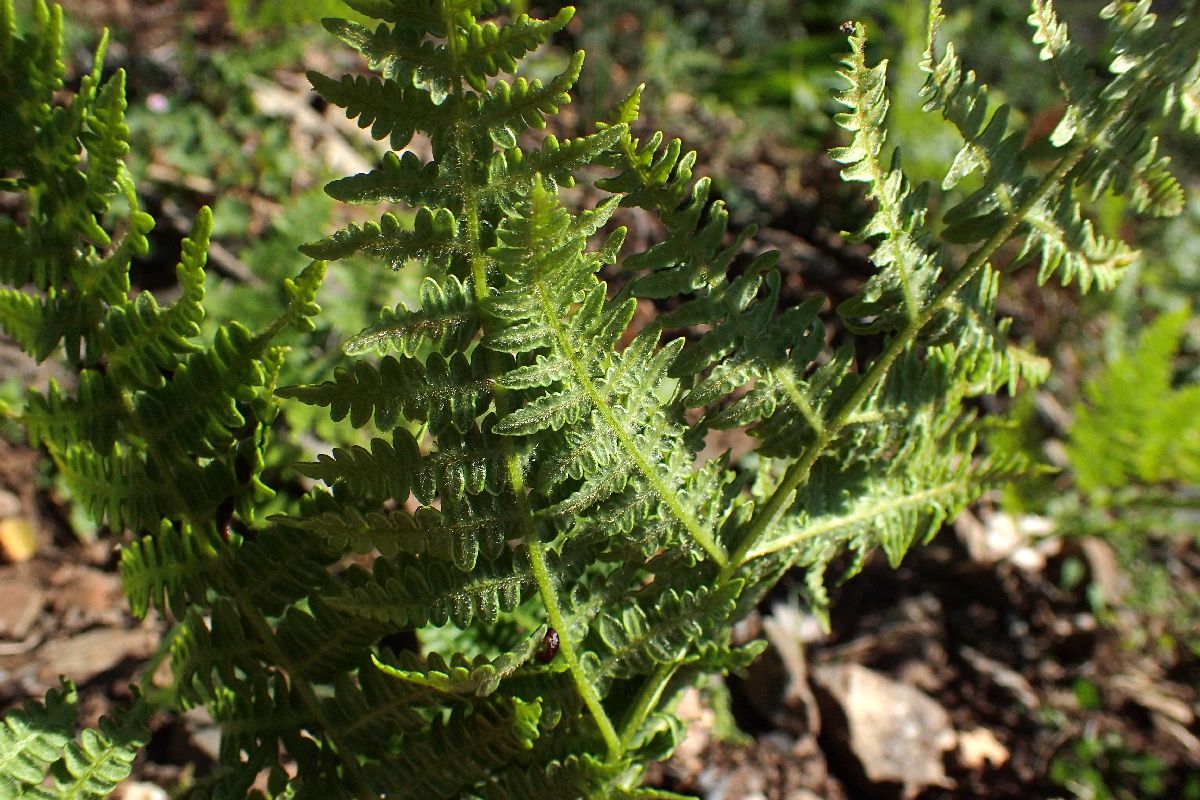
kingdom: Plantae
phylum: Tracheophyta
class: Polypodiopsida
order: Polypodiales
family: Dennstaedtiaceae
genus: Pteridium
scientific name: Pteridium aquilinum
